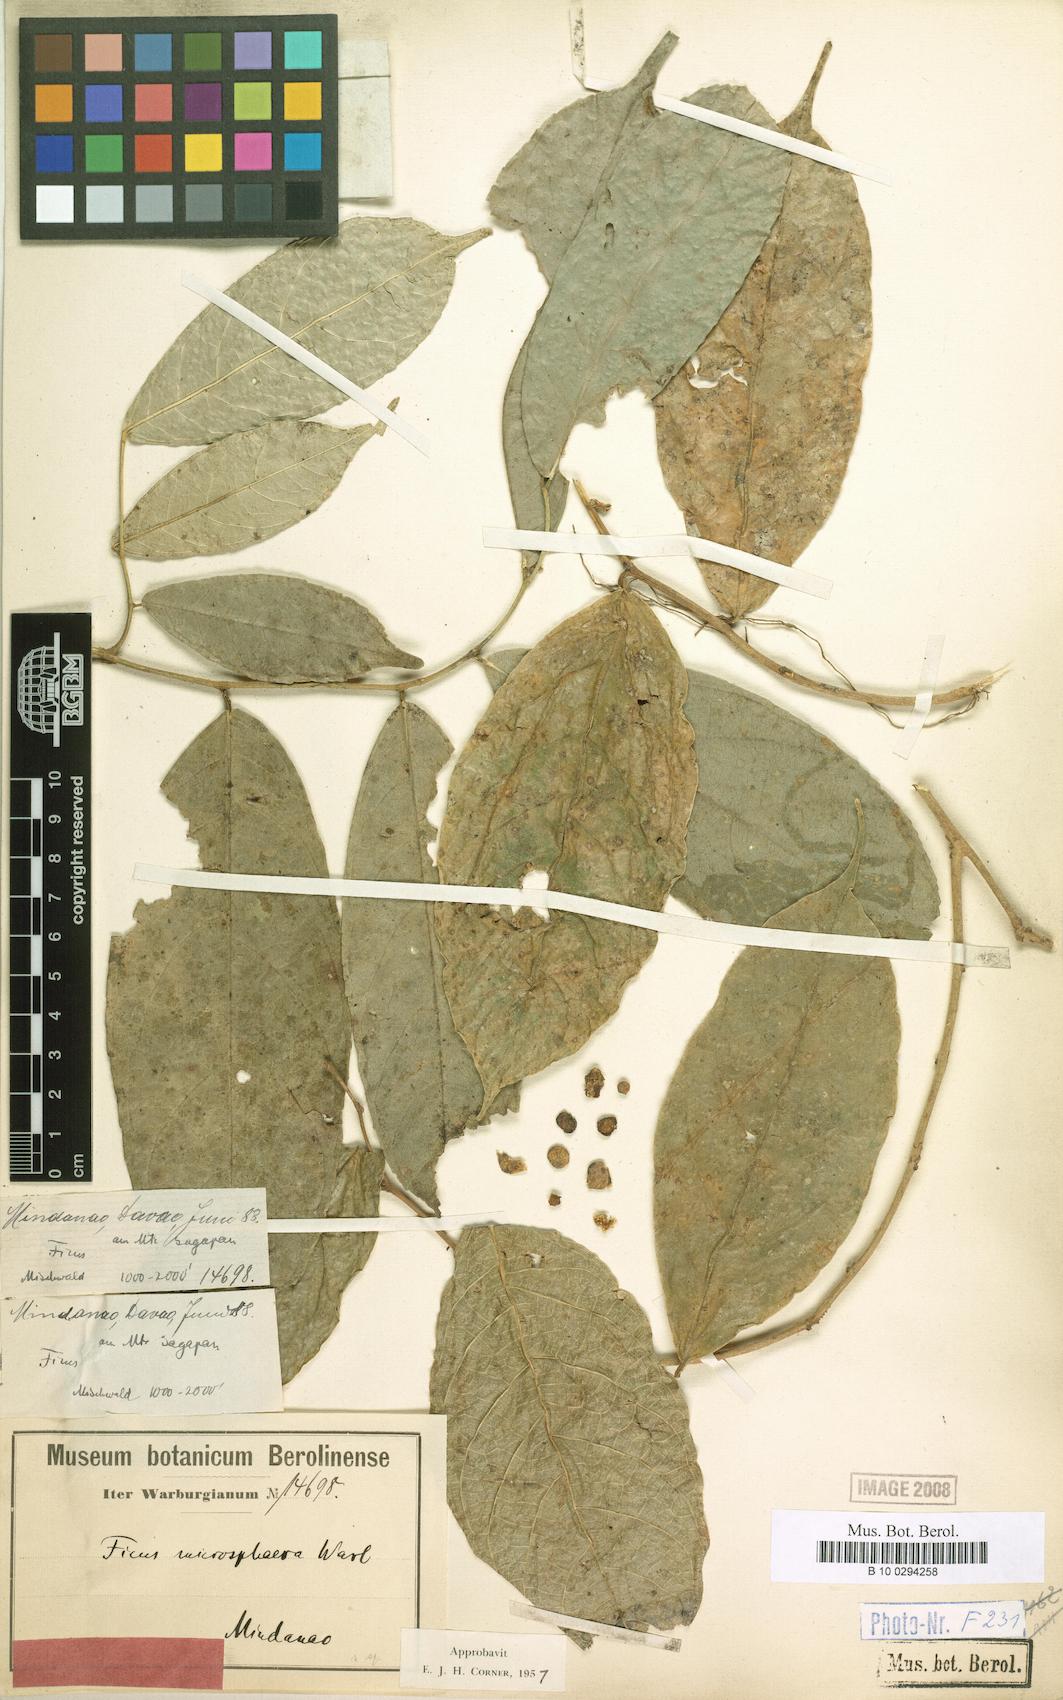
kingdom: Plantae
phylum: Tracheophyta
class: Magnoliopsida
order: Rosales
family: Moraceae
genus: Ficus
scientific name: Ficus microsphaera
